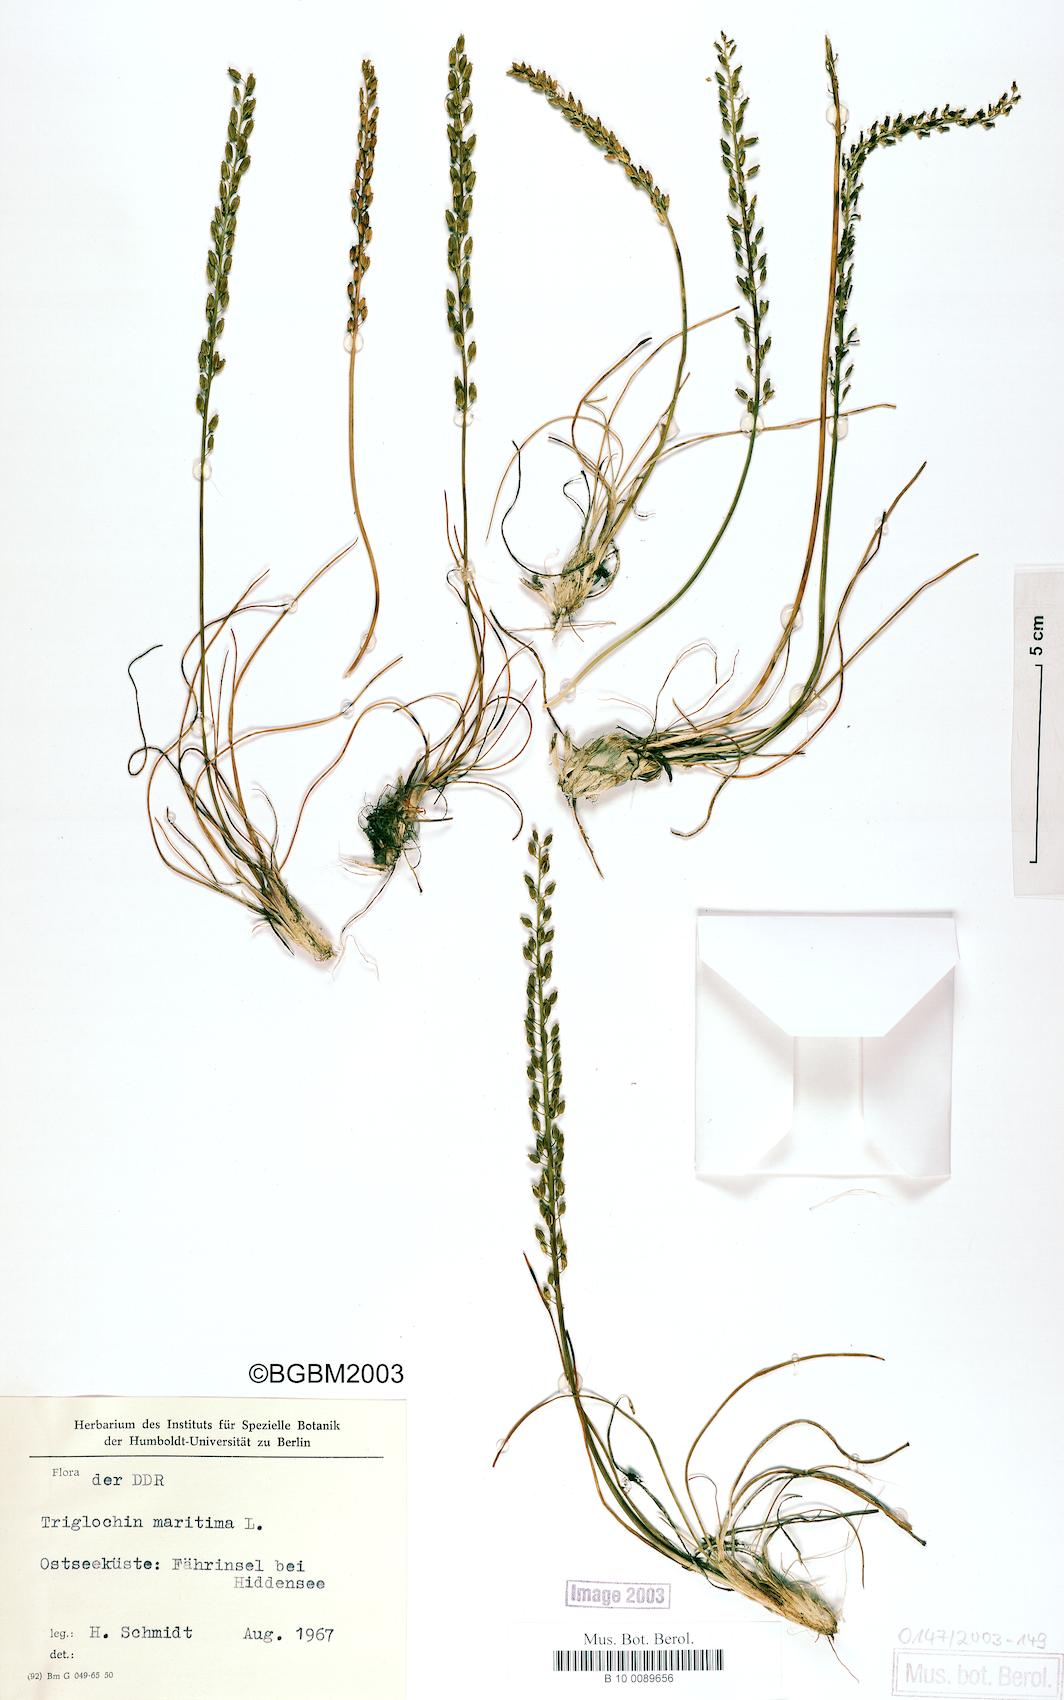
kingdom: Plantae
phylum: Tracheophyta
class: Liliopsida
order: Alismatales
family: Juncaginaceae
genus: Triglochin
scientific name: Triglochin maritima
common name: Sea arrowgrass
